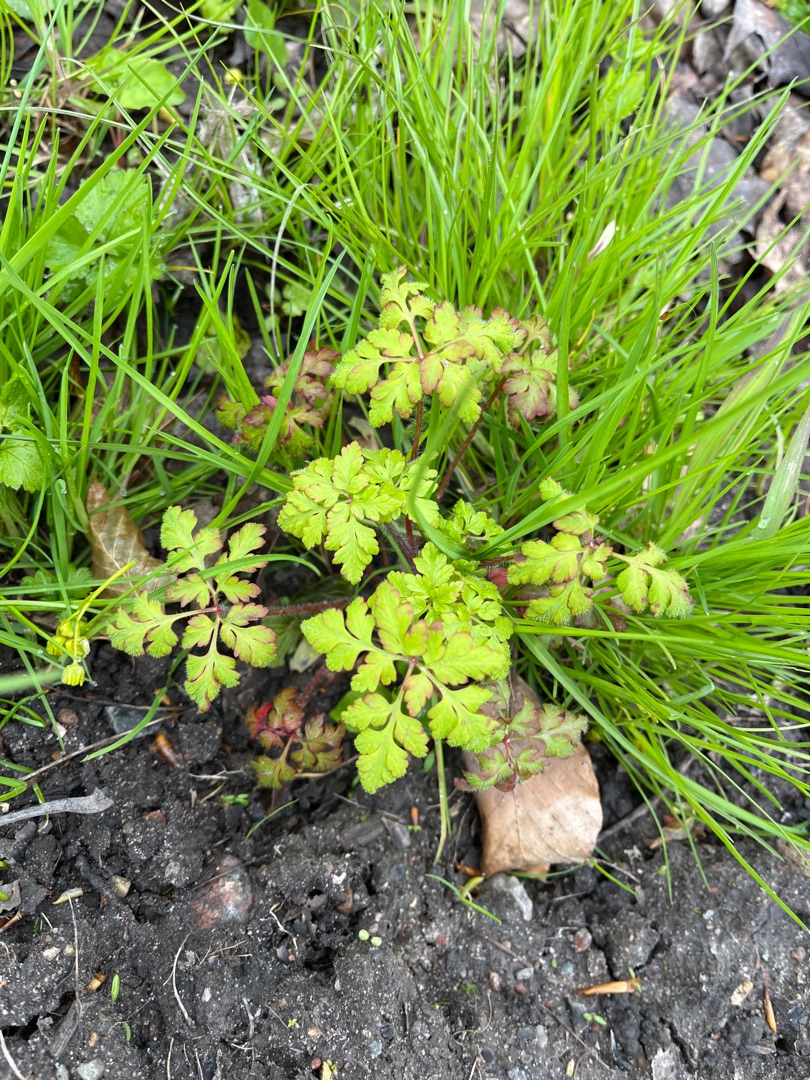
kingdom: Plantae
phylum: Tracheophyta
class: Magnoliopsida
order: Geraniales
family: Geraniaceae
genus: Geranium
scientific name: Geranium robertianum
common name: Stinkende storkenæb
